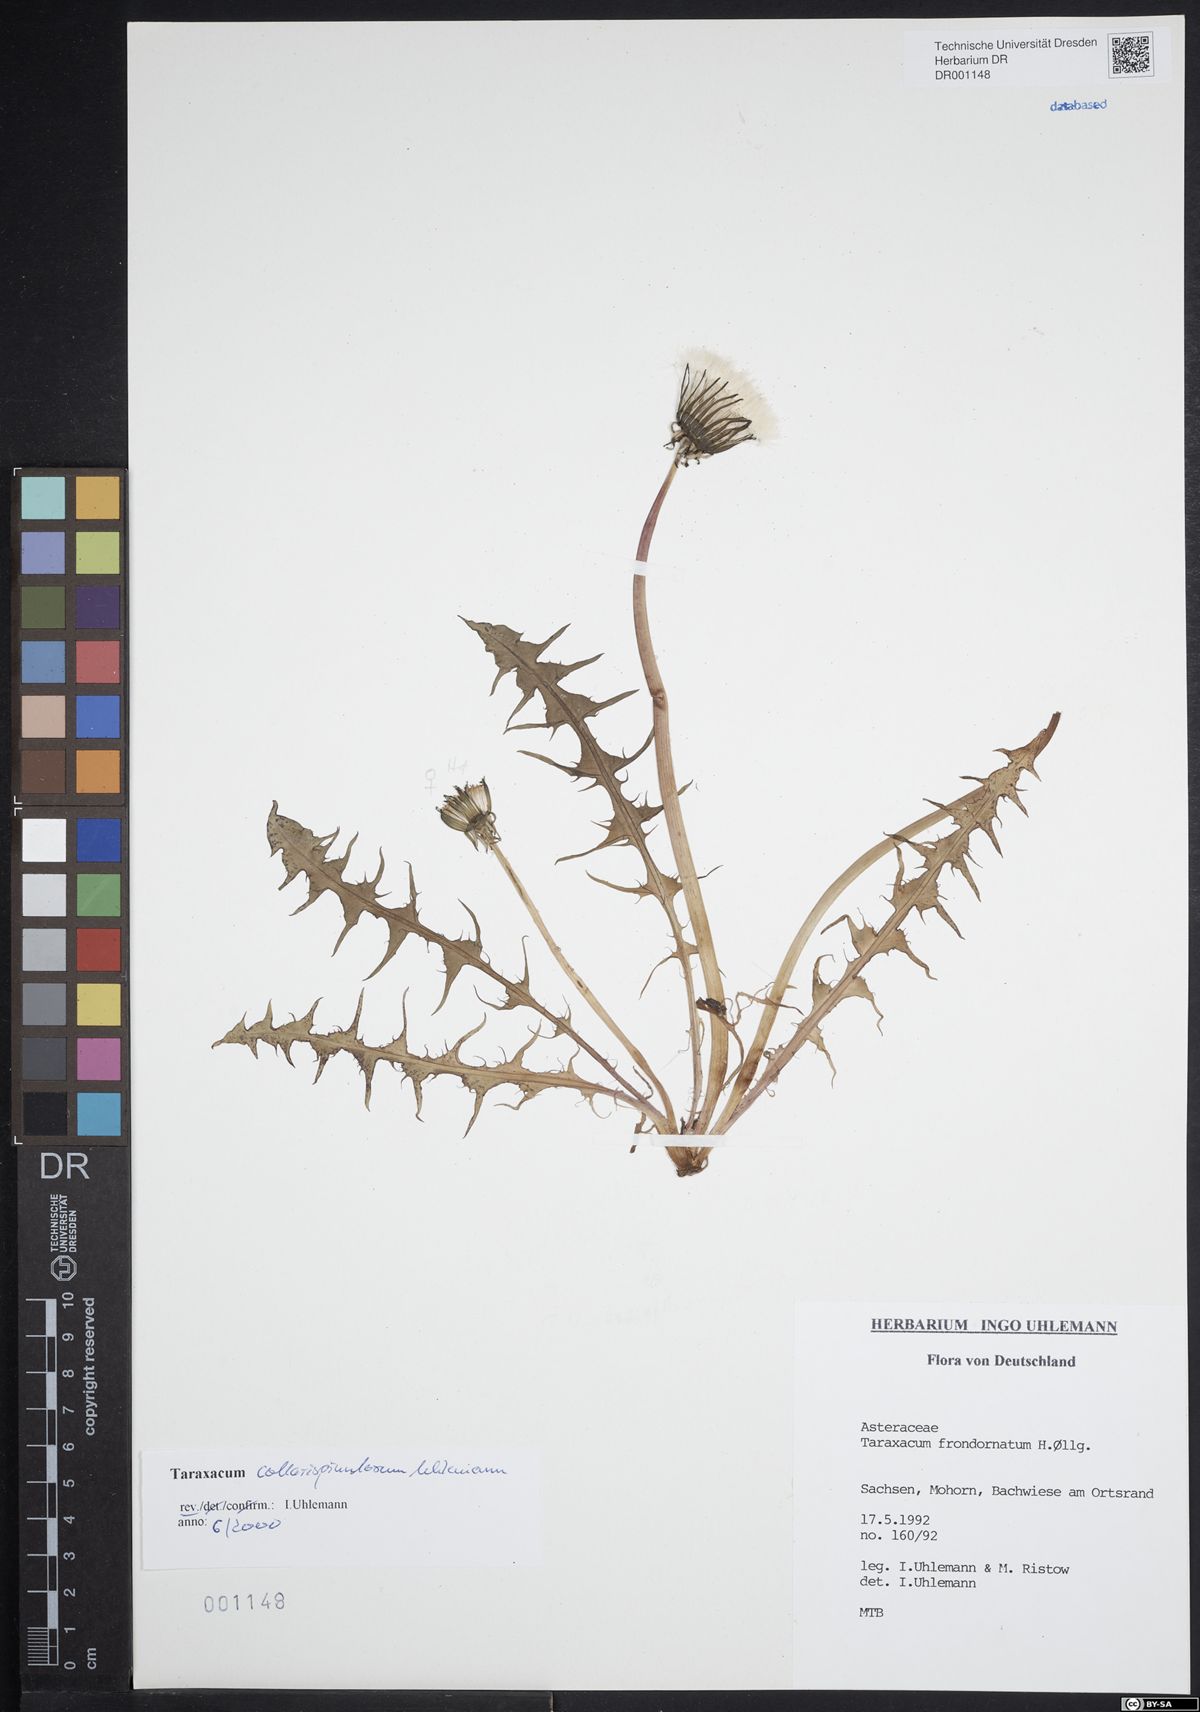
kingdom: Plantae
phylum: Tracheophyta
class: Magnoliopsida
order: Asterales
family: Asteraceae
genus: Taraxacum
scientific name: Taraxacum collarispinulosum
